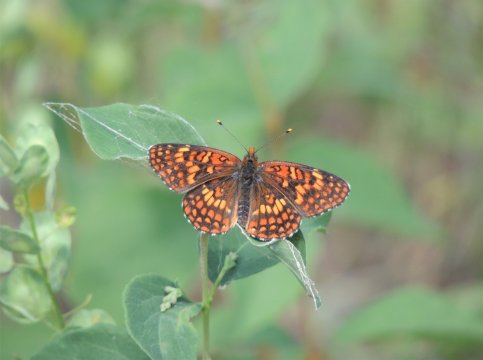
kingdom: Animalia
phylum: Arthropoda
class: Insecta
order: Lepidoptera
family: Nymphalidae
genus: Chlosyne
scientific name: Chlosyne palla
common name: Northern Checkerspot
